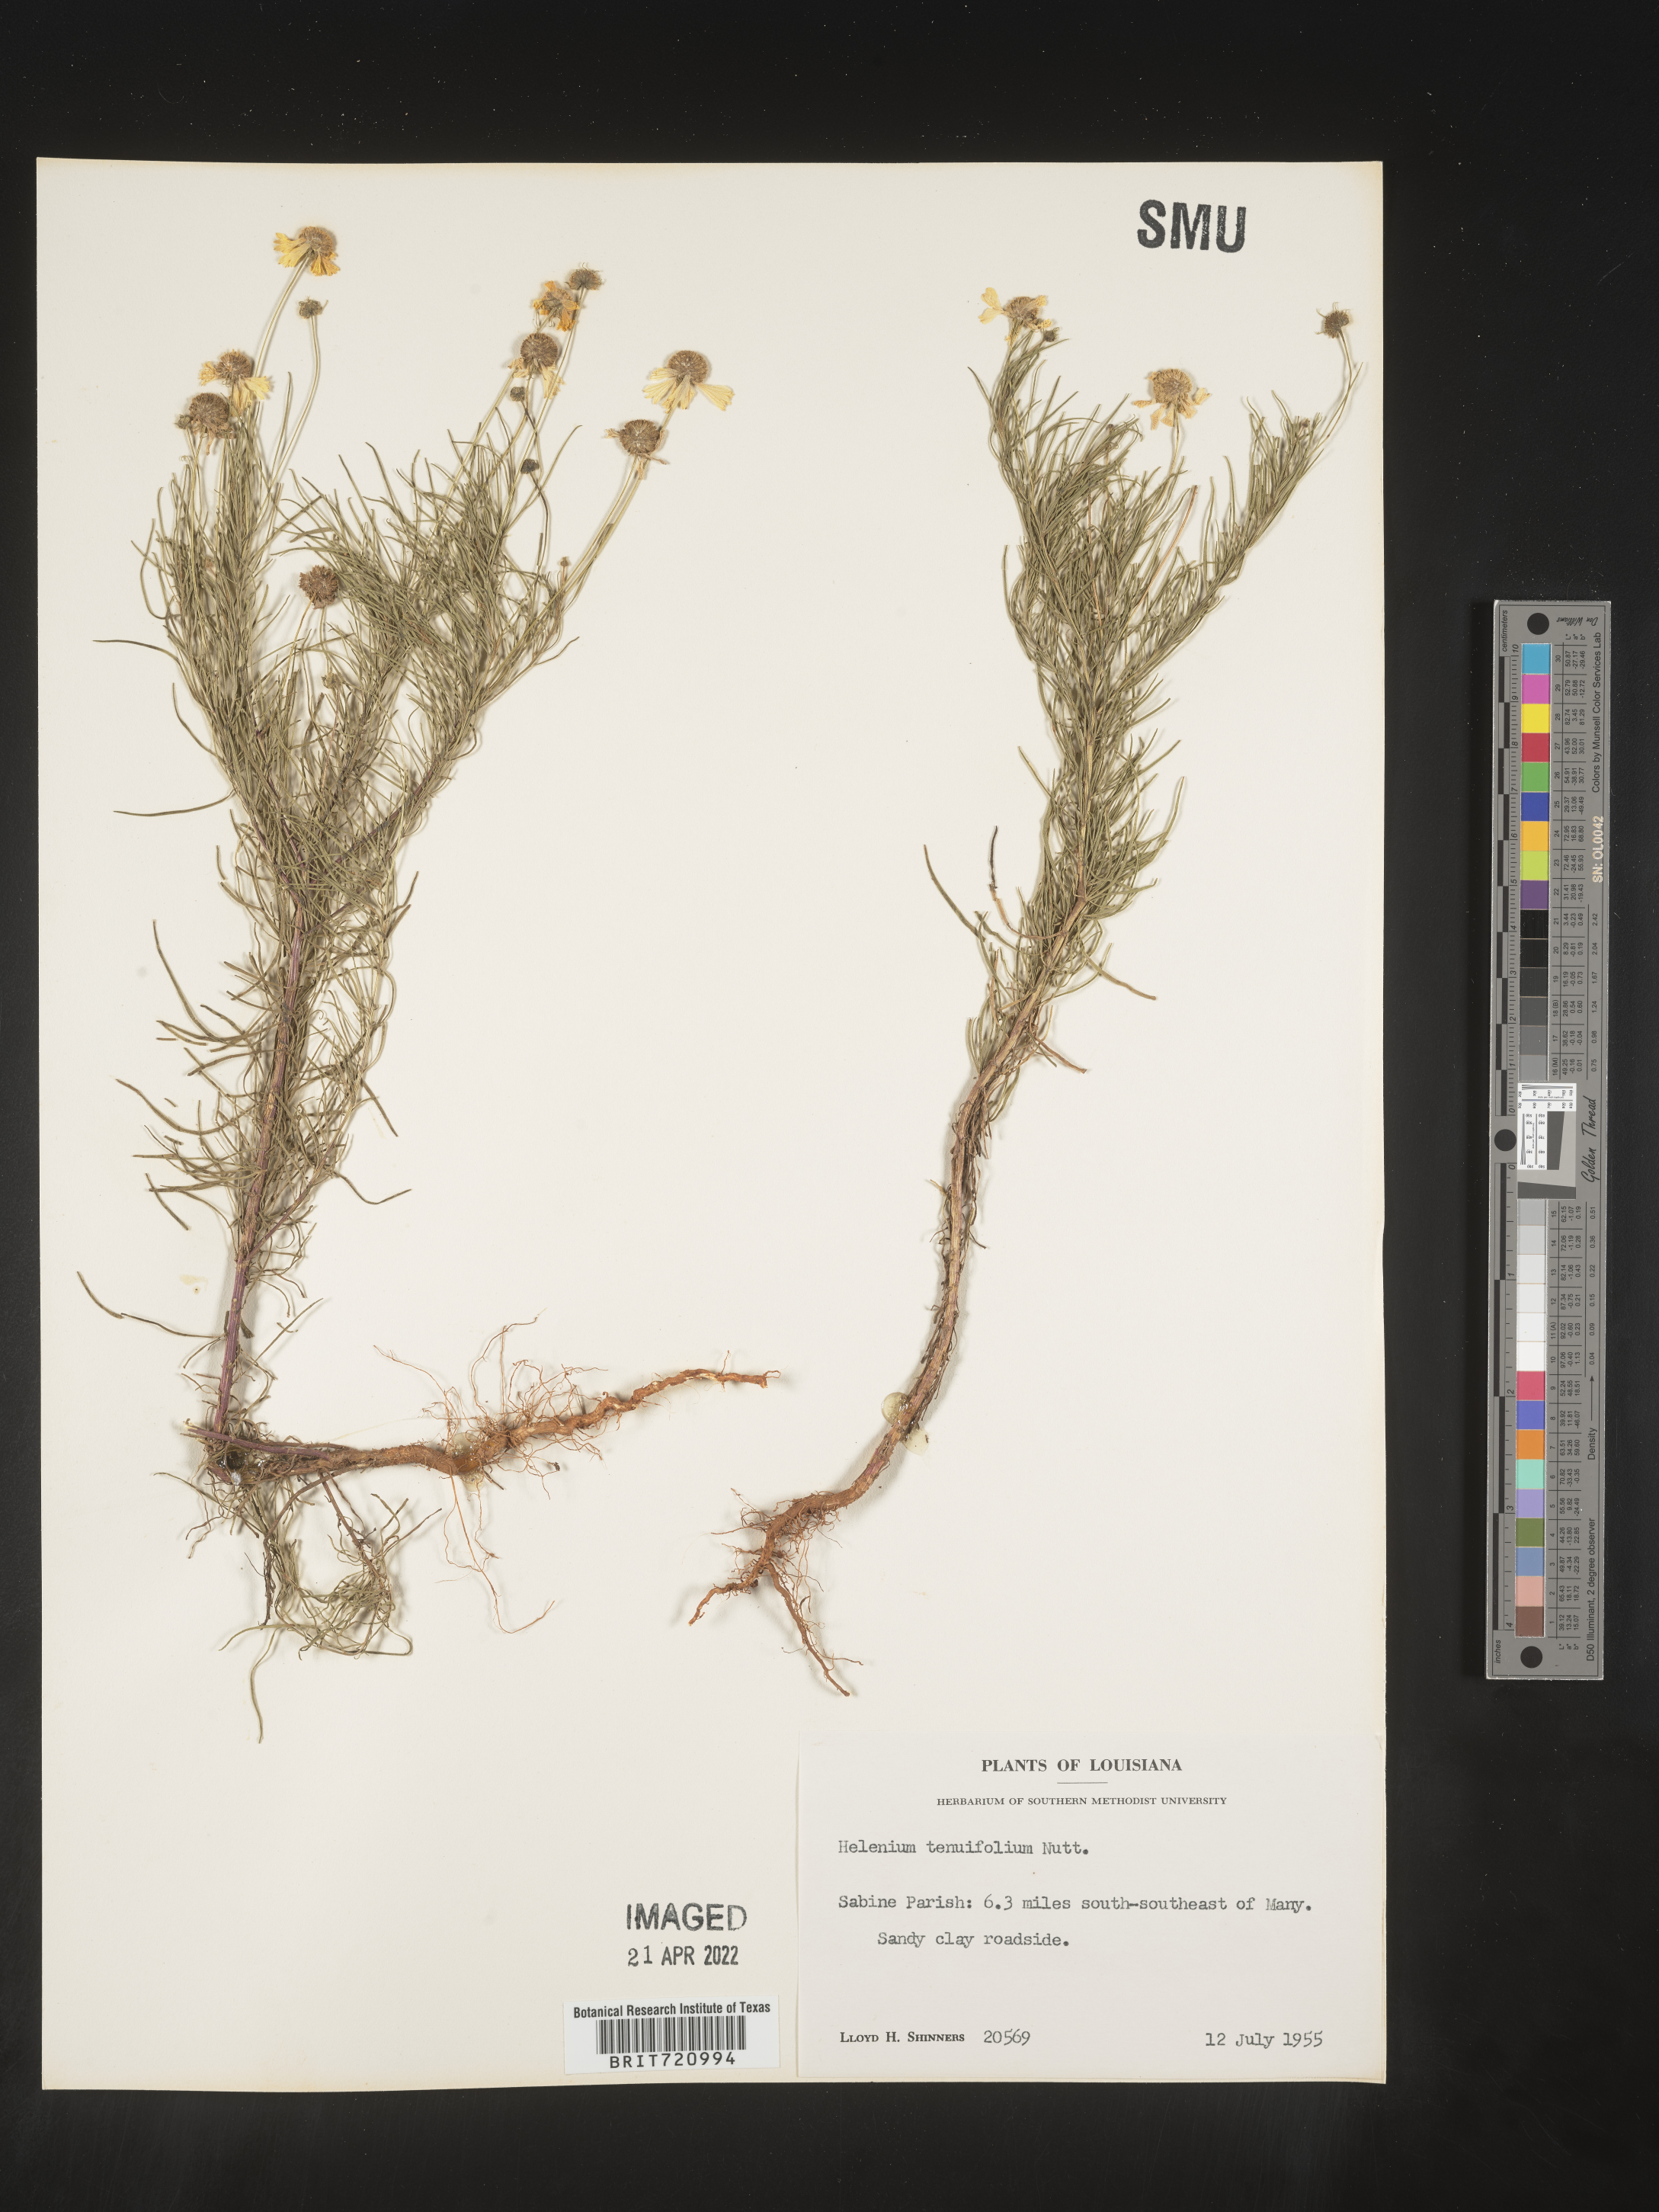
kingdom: Plantae
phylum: Tracheophyta
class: Magnoliopsida
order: Asterales
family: Asteraceae
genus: Helenium
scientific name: Helenium amarum
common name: Bitter sneezeweed
